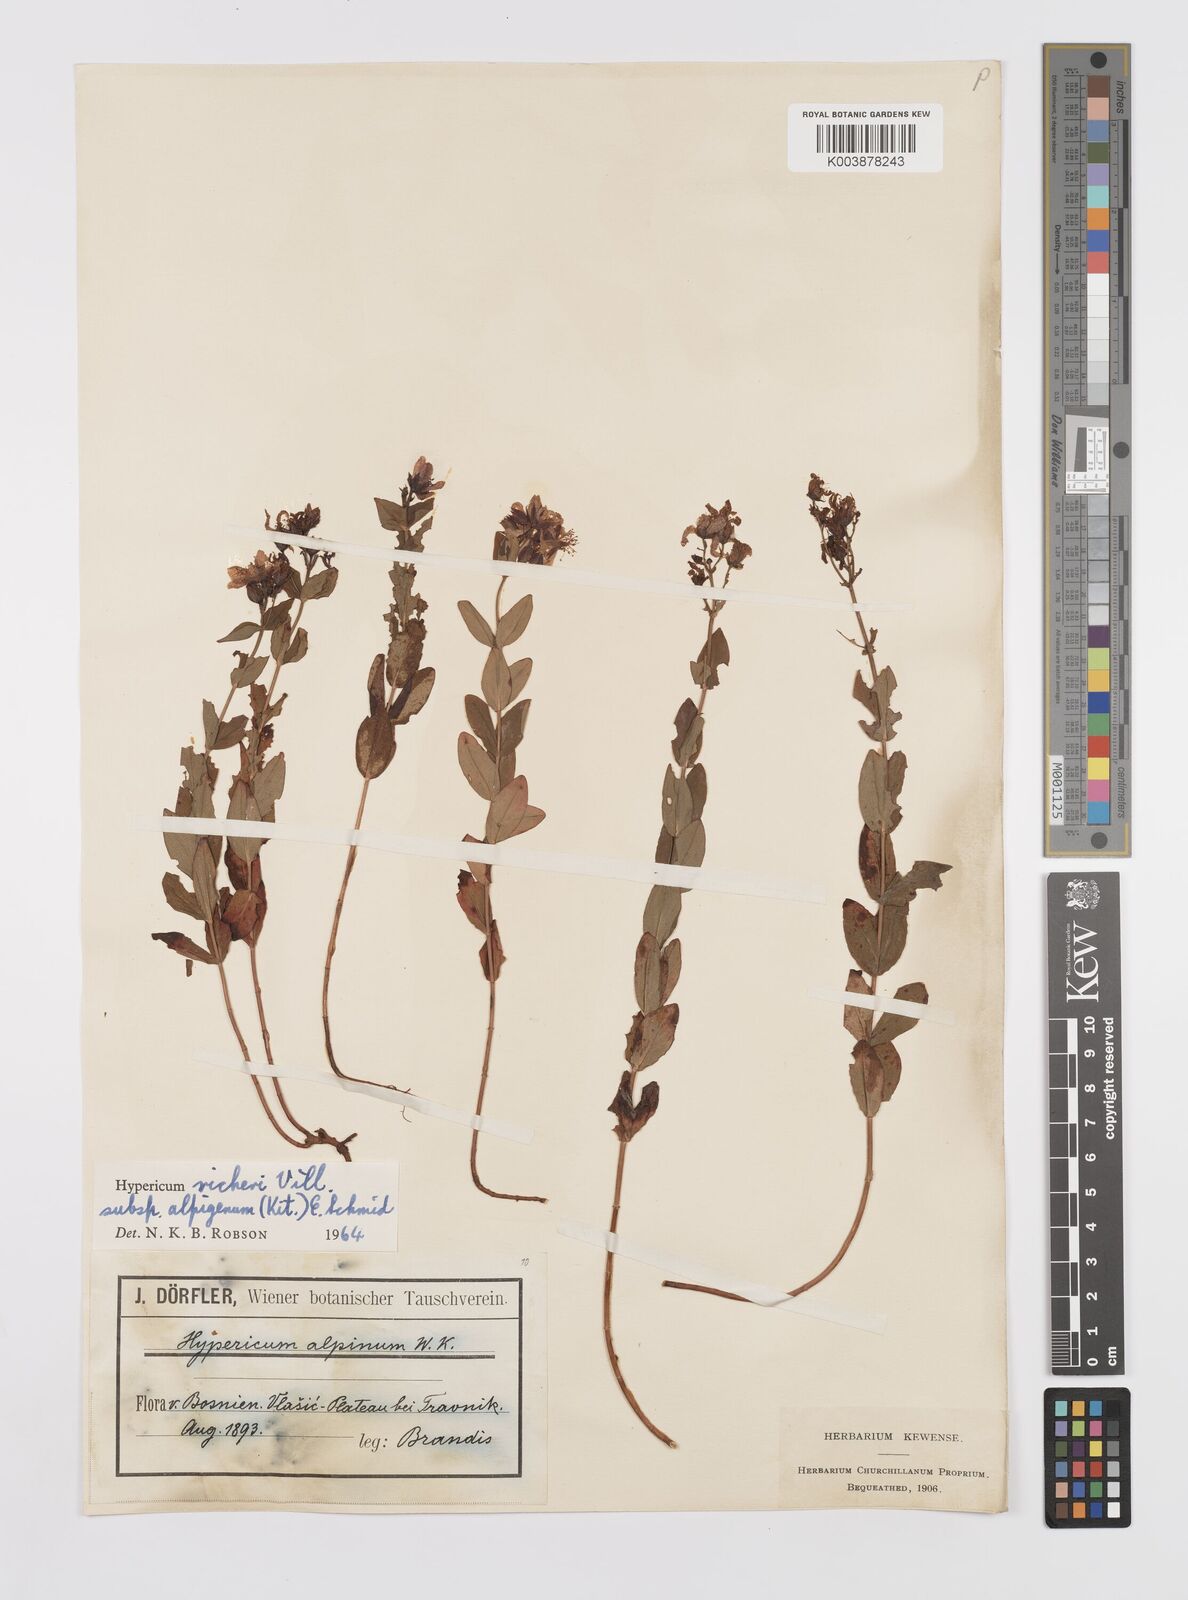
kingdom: Plantae
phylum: Tracheophyta
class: Magnoliopsida
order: Malpighiales
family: Hypericaceae
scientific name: Hypericaceae
